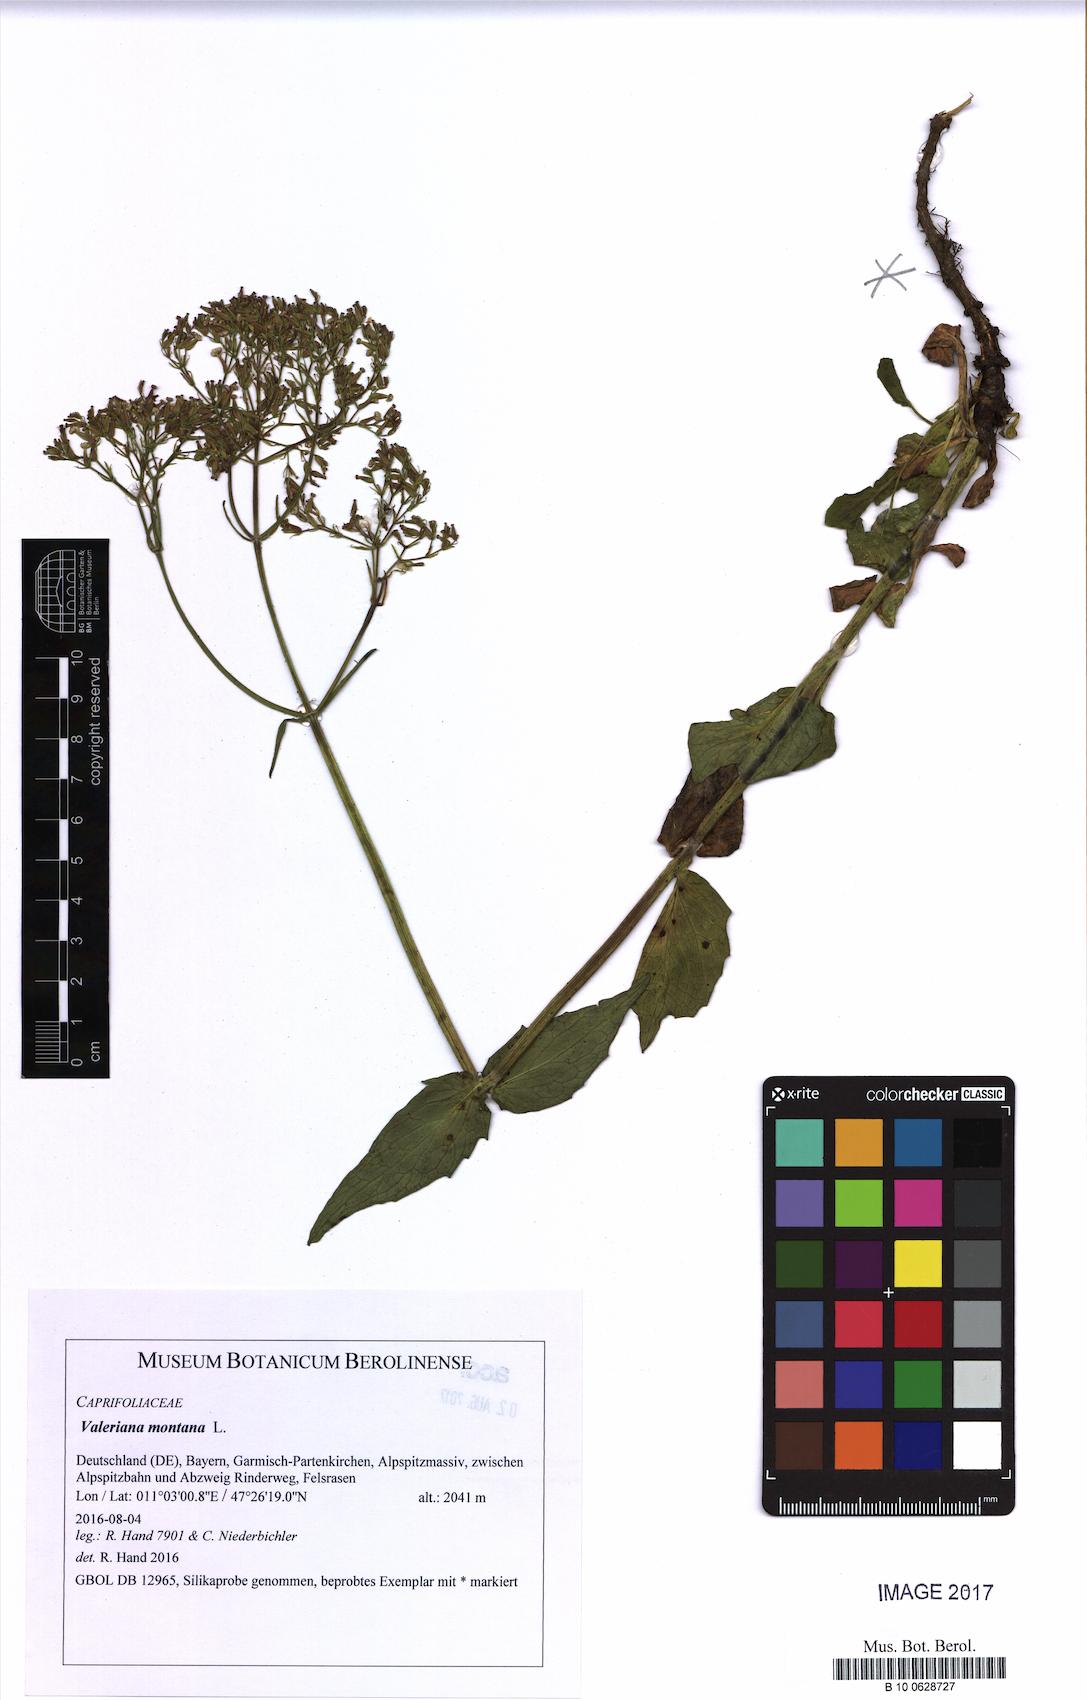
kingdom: Plantae
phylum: Tracheophyta
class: Magnoliopsida
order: Dipsacales
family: Caprifoliaceae
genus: Valeriana
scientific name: Valeriana montana
